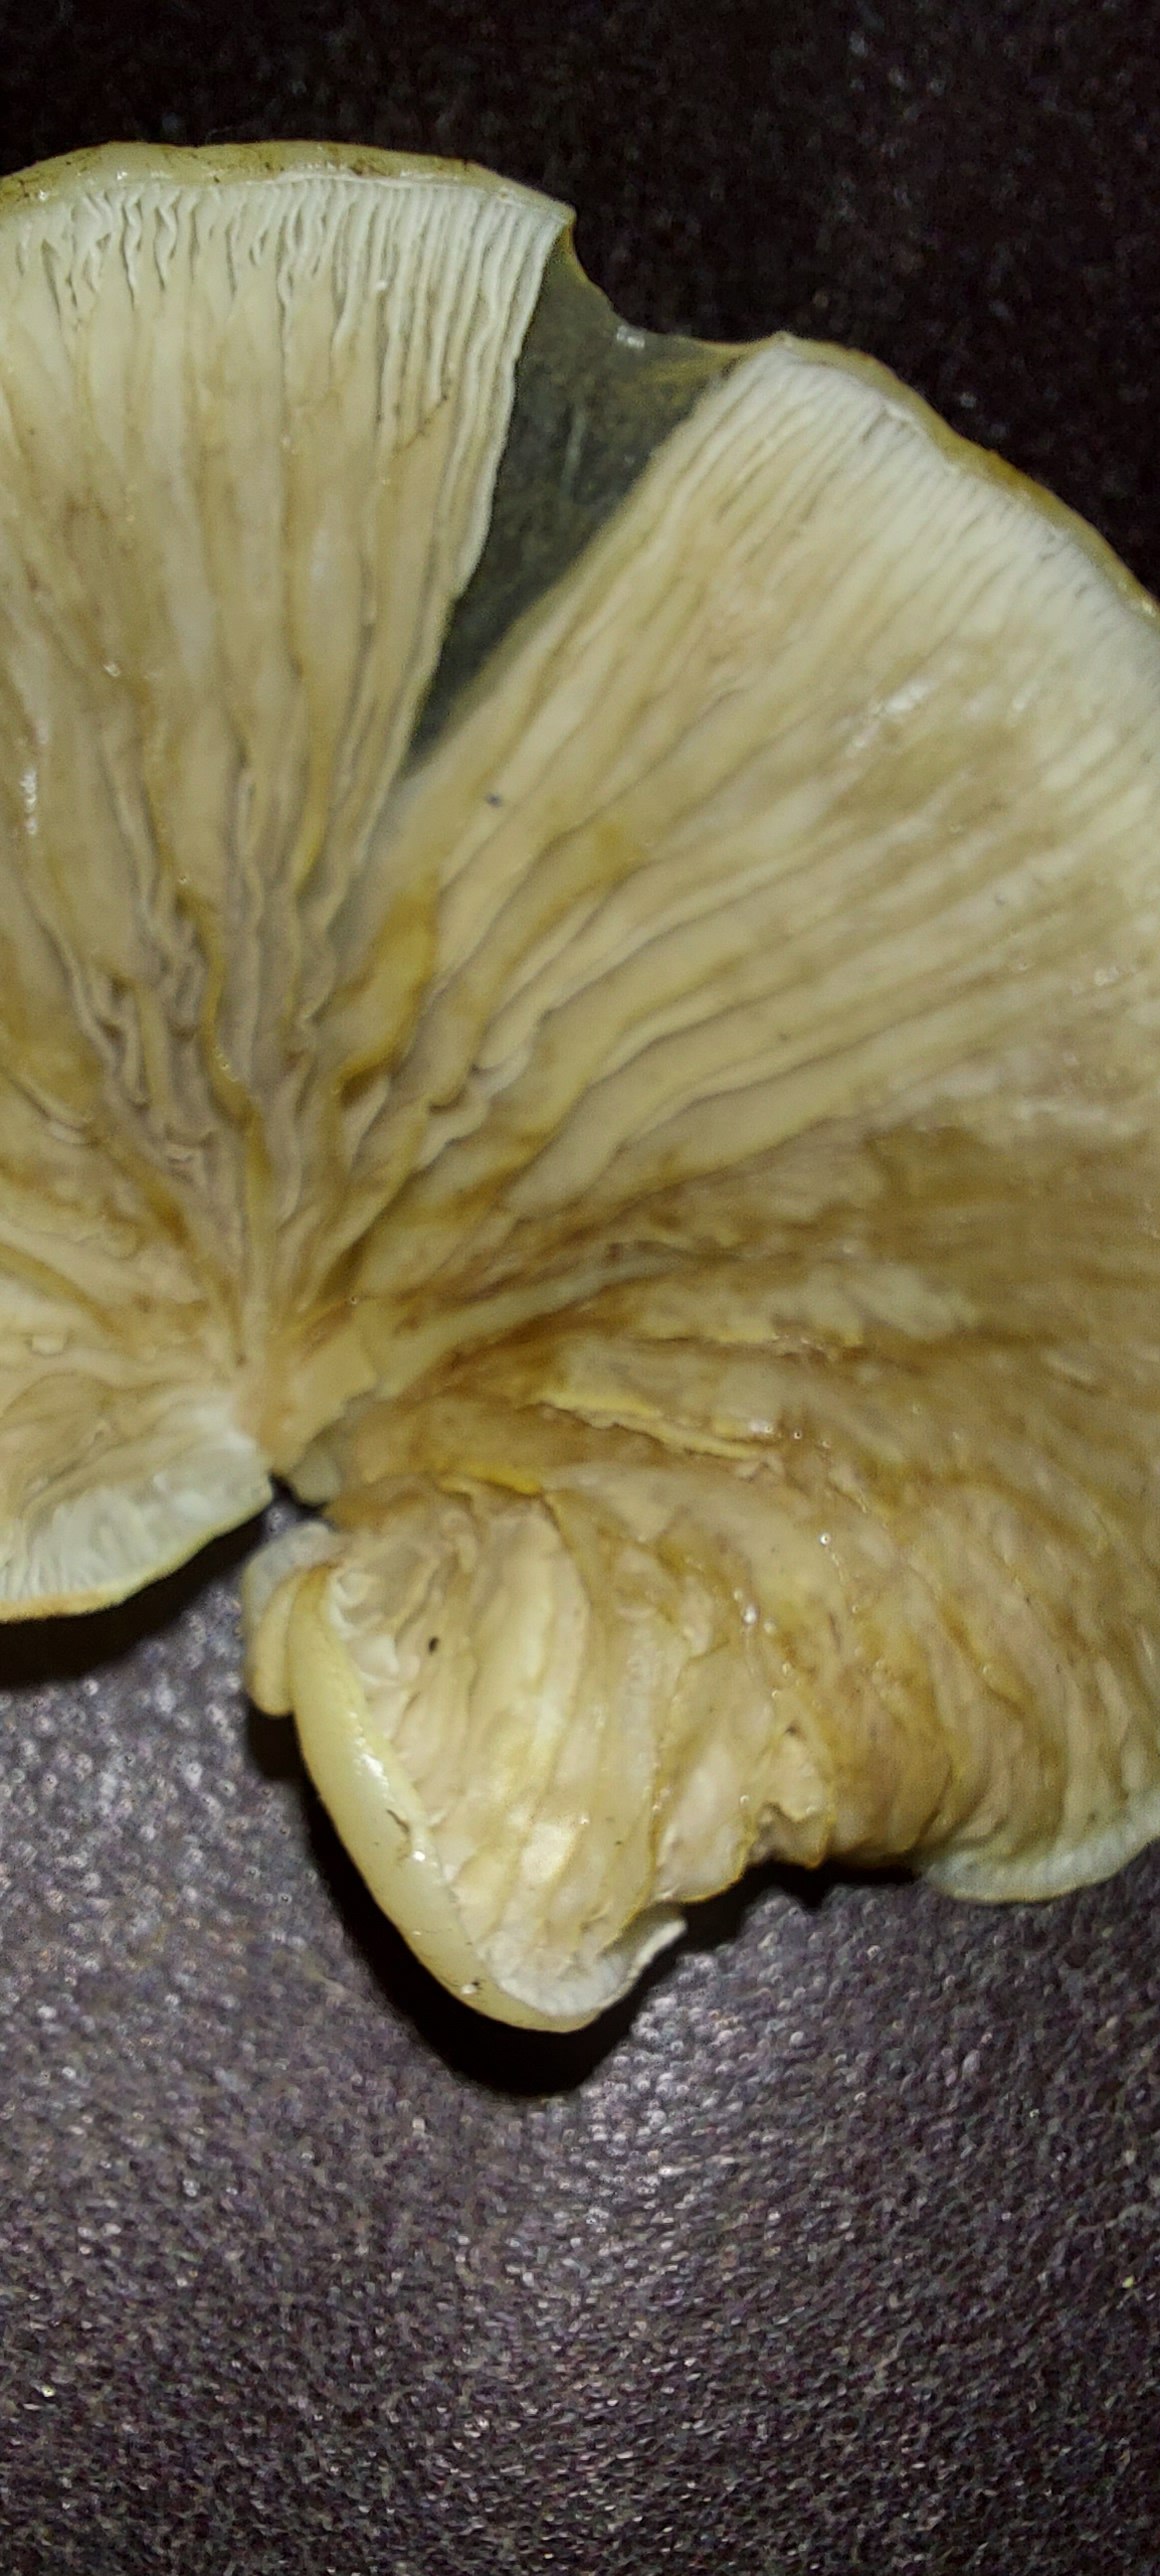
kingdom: Fungi
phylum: Basidiomycota
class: Agaricomycetes
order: Agaricales
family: Crepidotaceae
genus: Crepidotus
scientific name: Crepidotus mollis
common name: blød muslingesvamp
